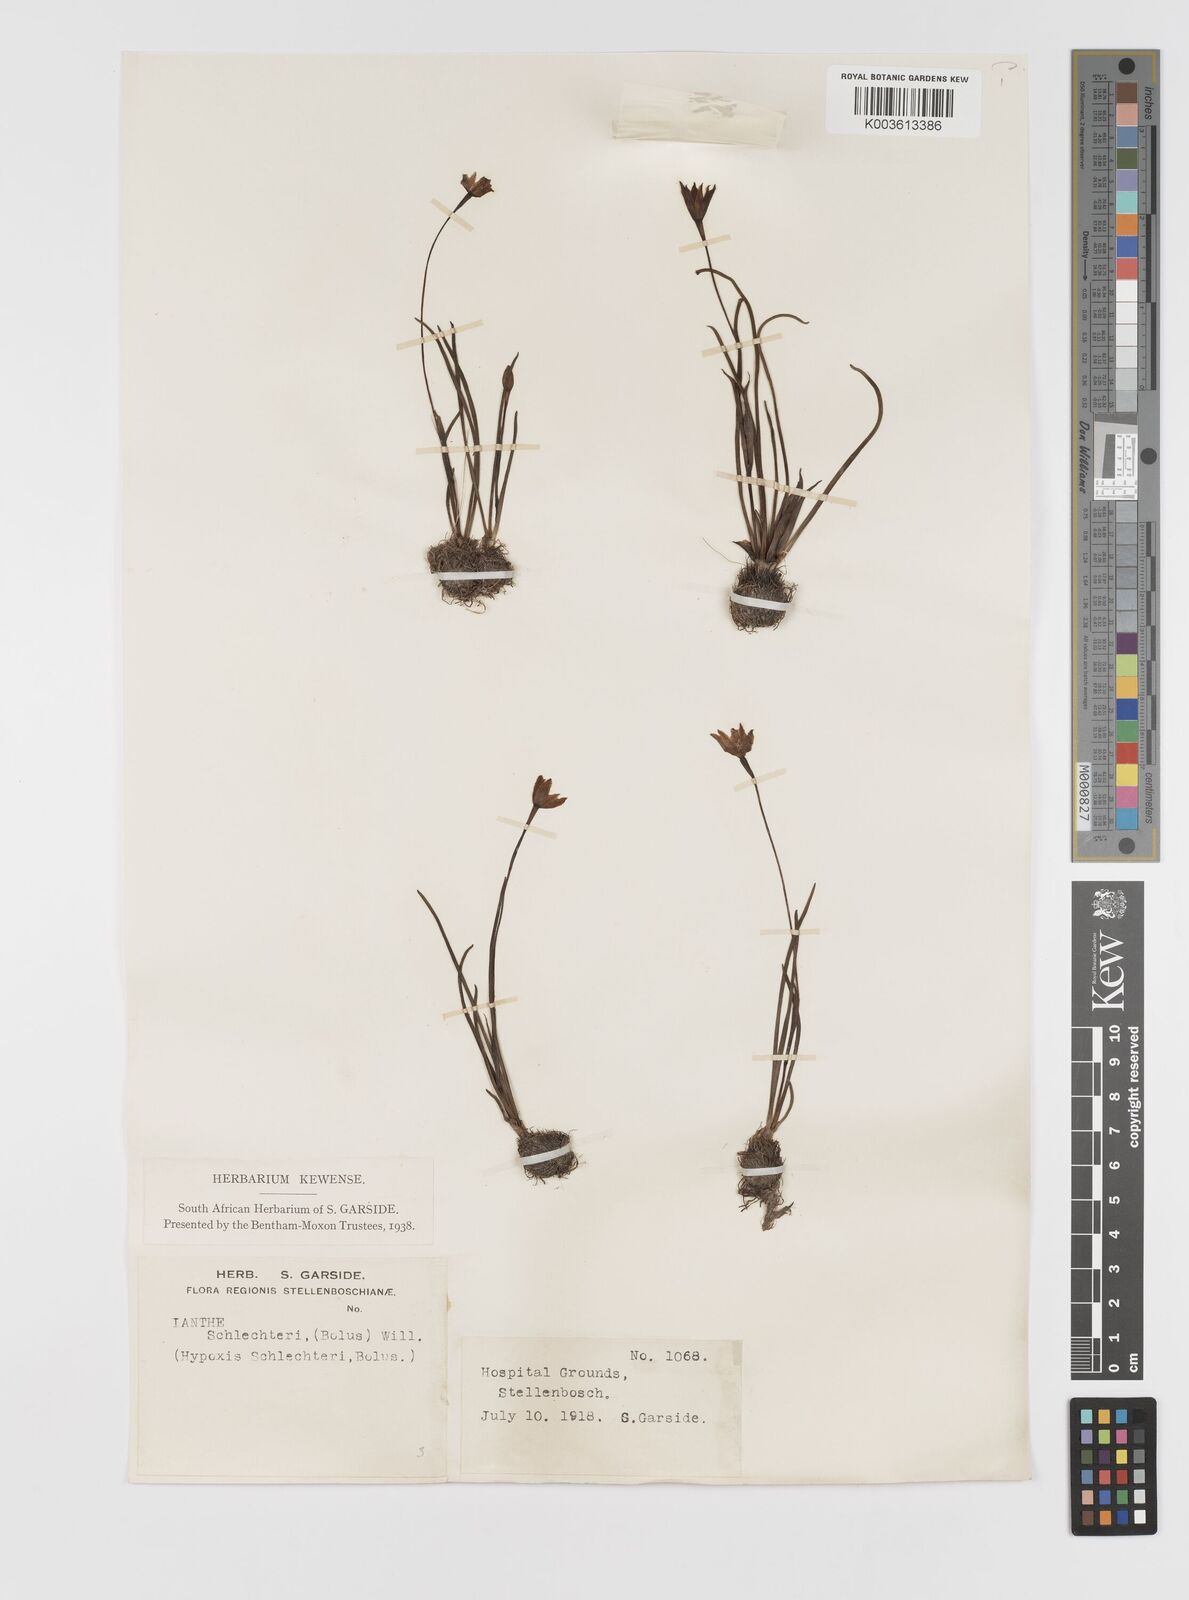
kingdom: Plantae
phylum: Tracheophyta
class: Liliopsida
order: Asparagales
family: Hypoxidaceae
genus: Pauridia
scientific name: Pauridia affinis
